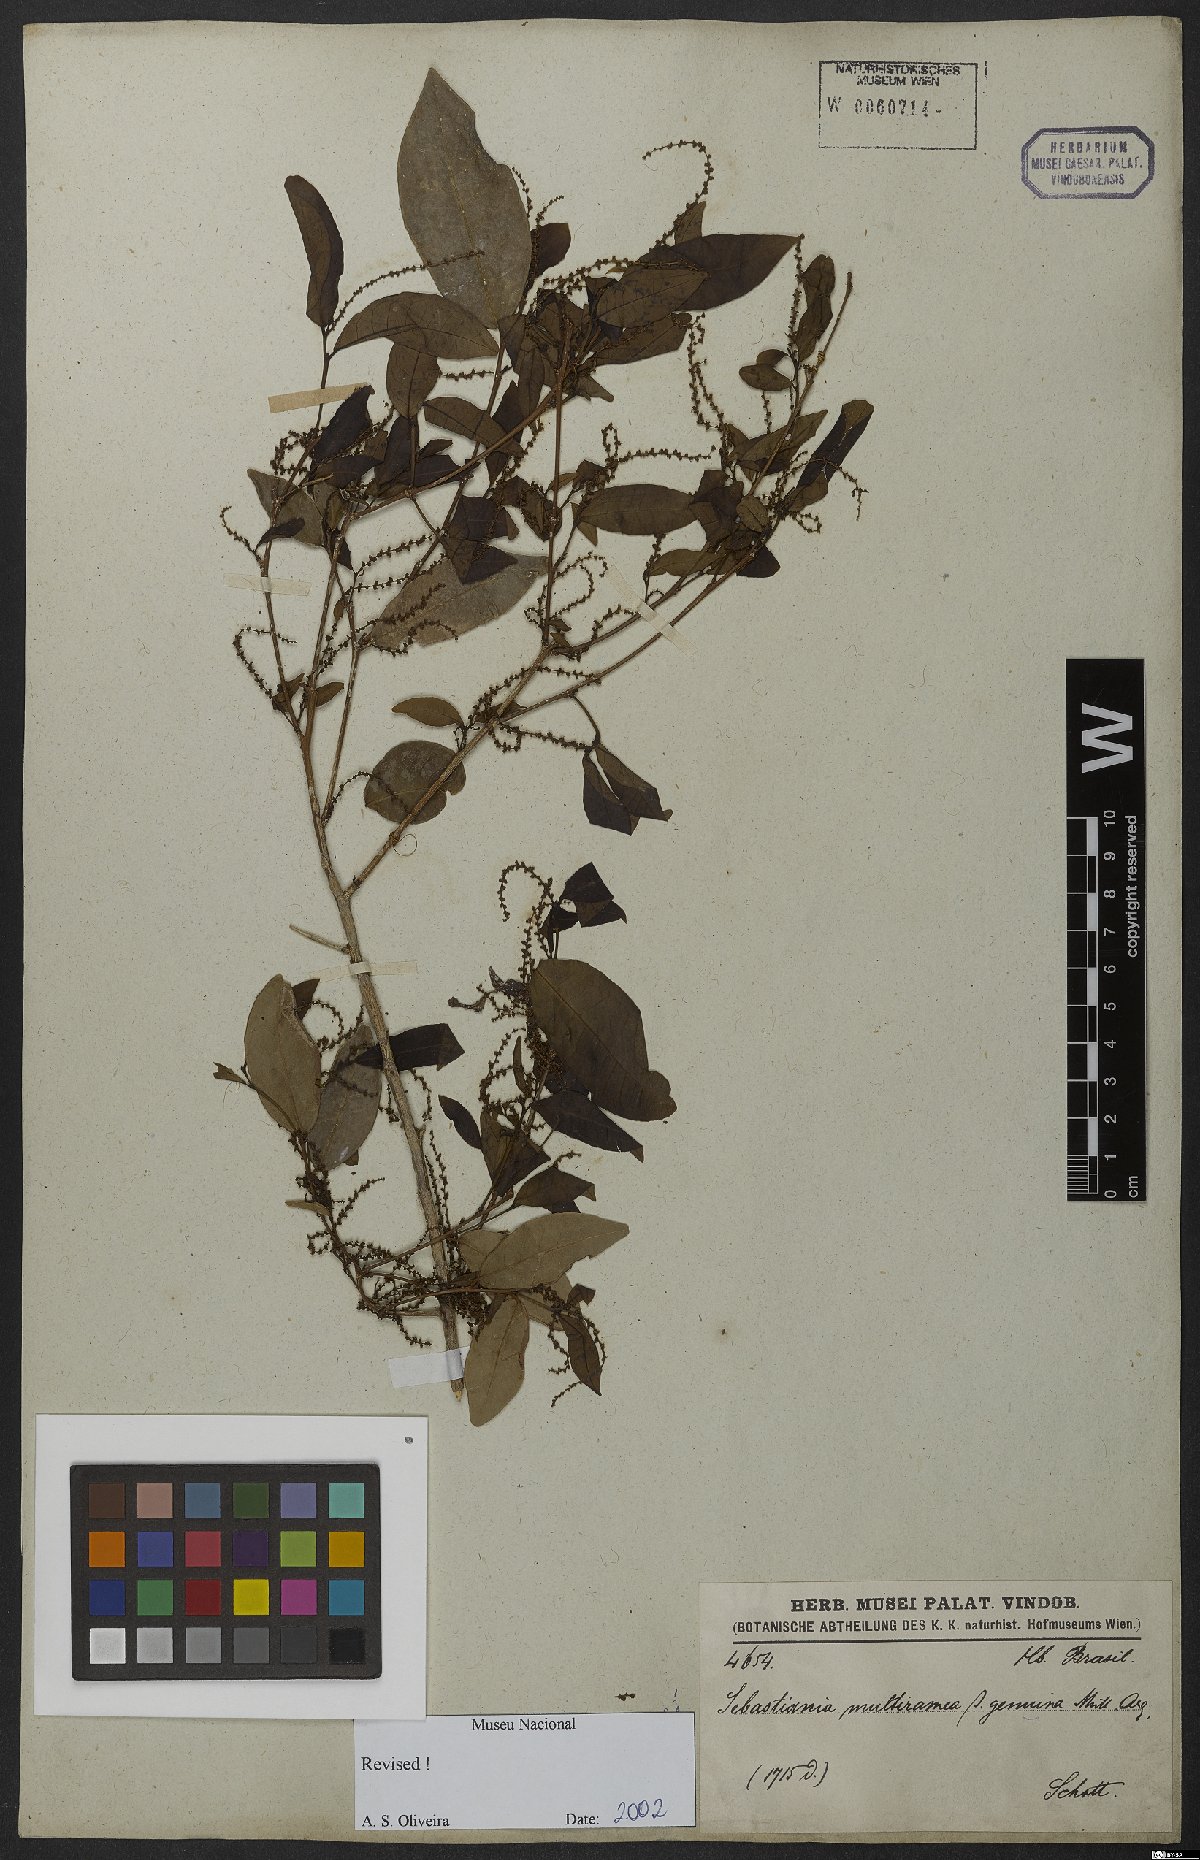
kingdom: Plantae
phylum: Tracheophyta
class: Magnoliopsida
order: Malpighiales
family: Euphorbiaceae
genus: Gymnanthes
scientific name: Gymnanthes glabrata
